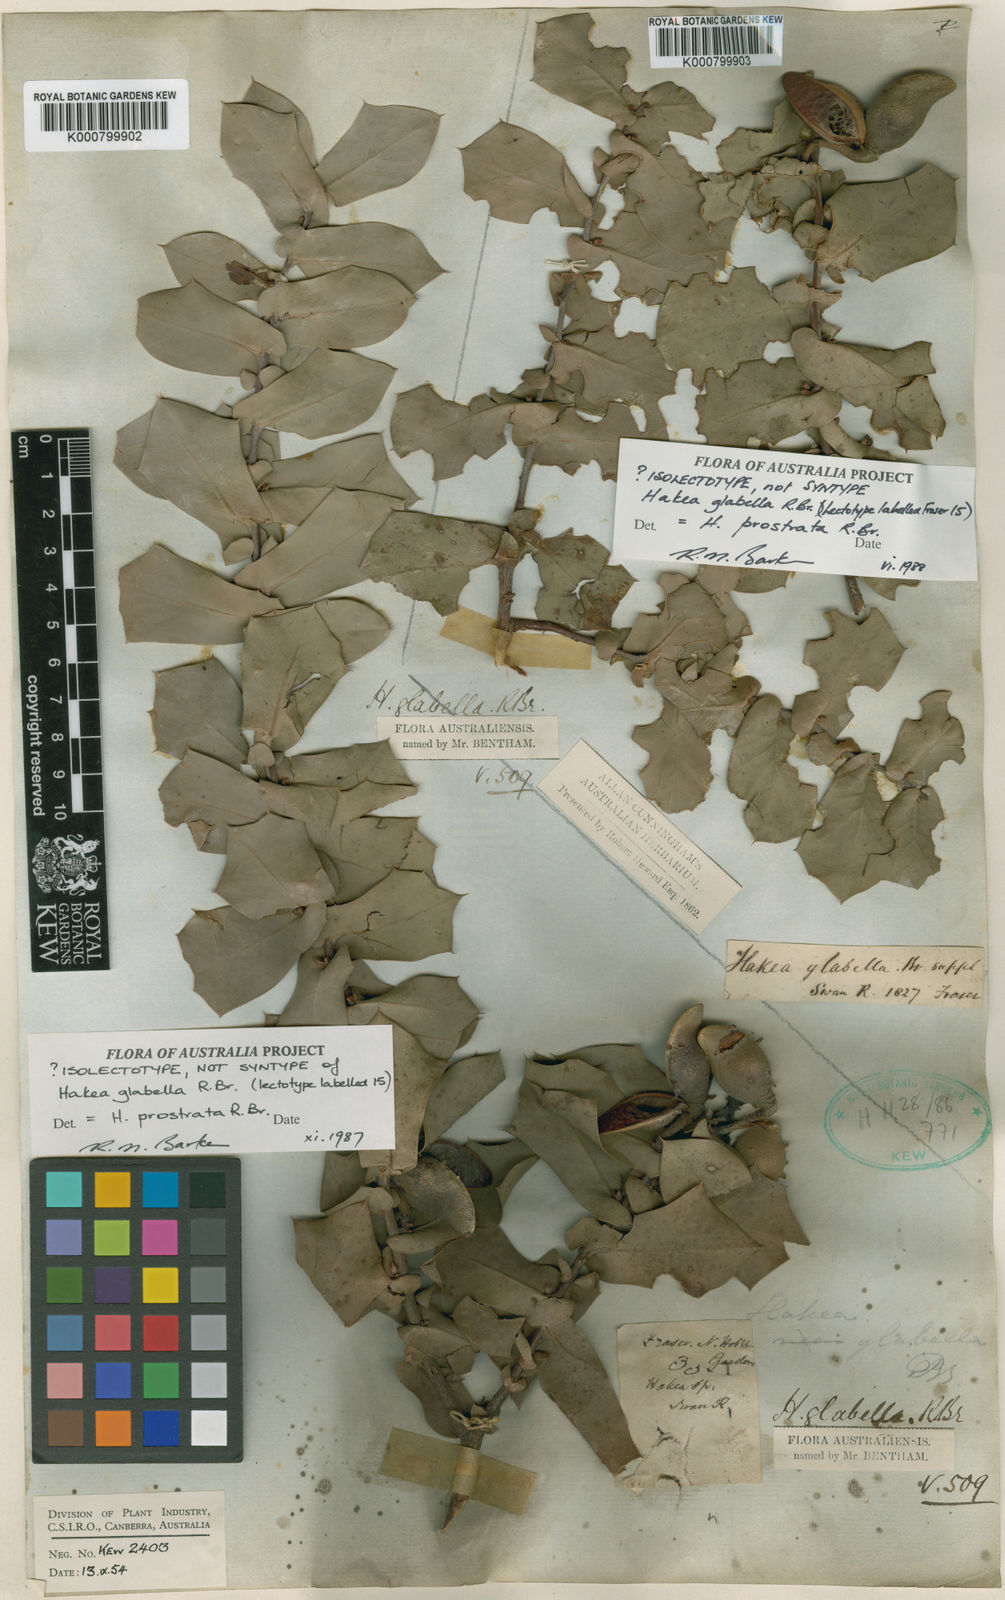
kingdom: Plantae
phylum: Tracheophyta
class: Magnoliopsida
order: Proteales
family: Proteaceae
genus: Hakea
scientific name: Hakea prostrata
